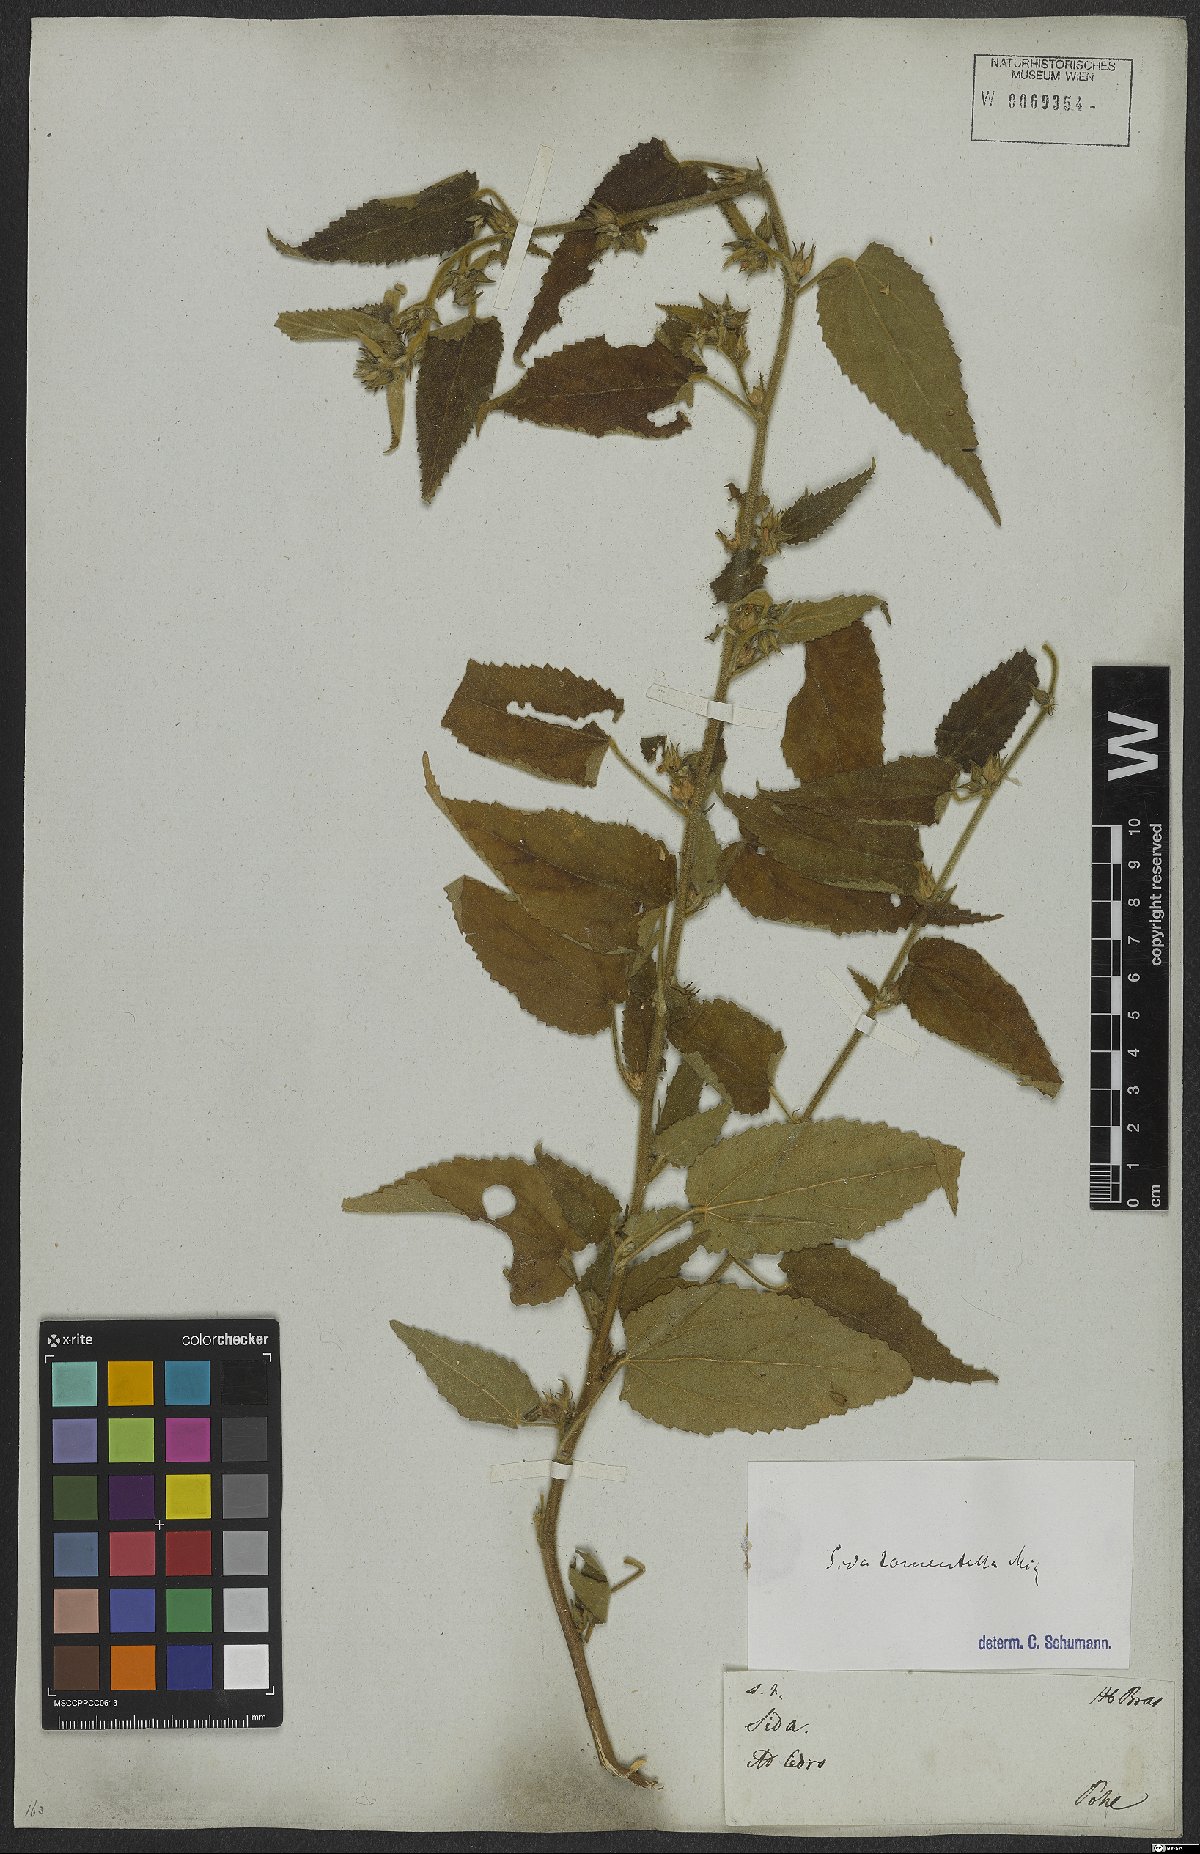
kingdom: Plantae
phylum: Tracheophyta
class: Magnoliopsida
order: Malvales
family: Malvaceae
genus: Sida
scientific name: Sida caudata
